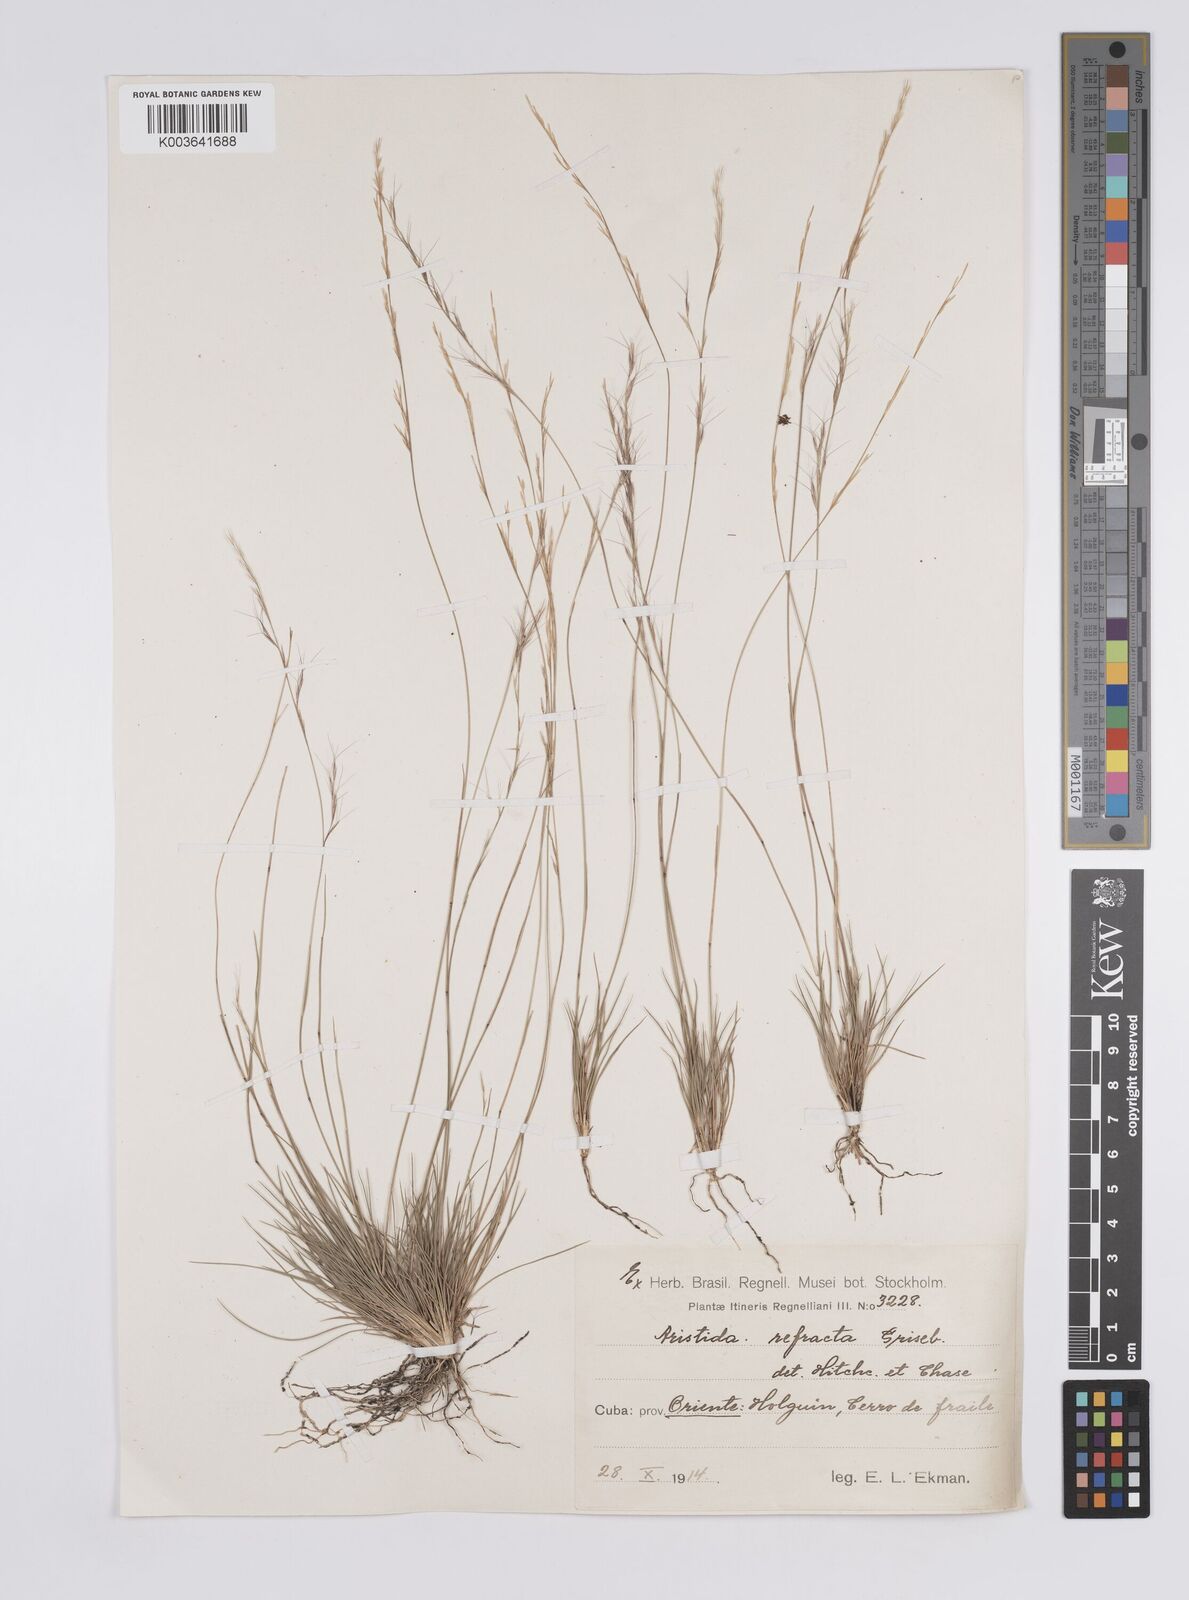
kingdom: Plantae
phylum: Tracheophyta
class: Liliopsida
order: Poales
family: Poaceae
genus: Aristida
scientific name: Aristida refracta
